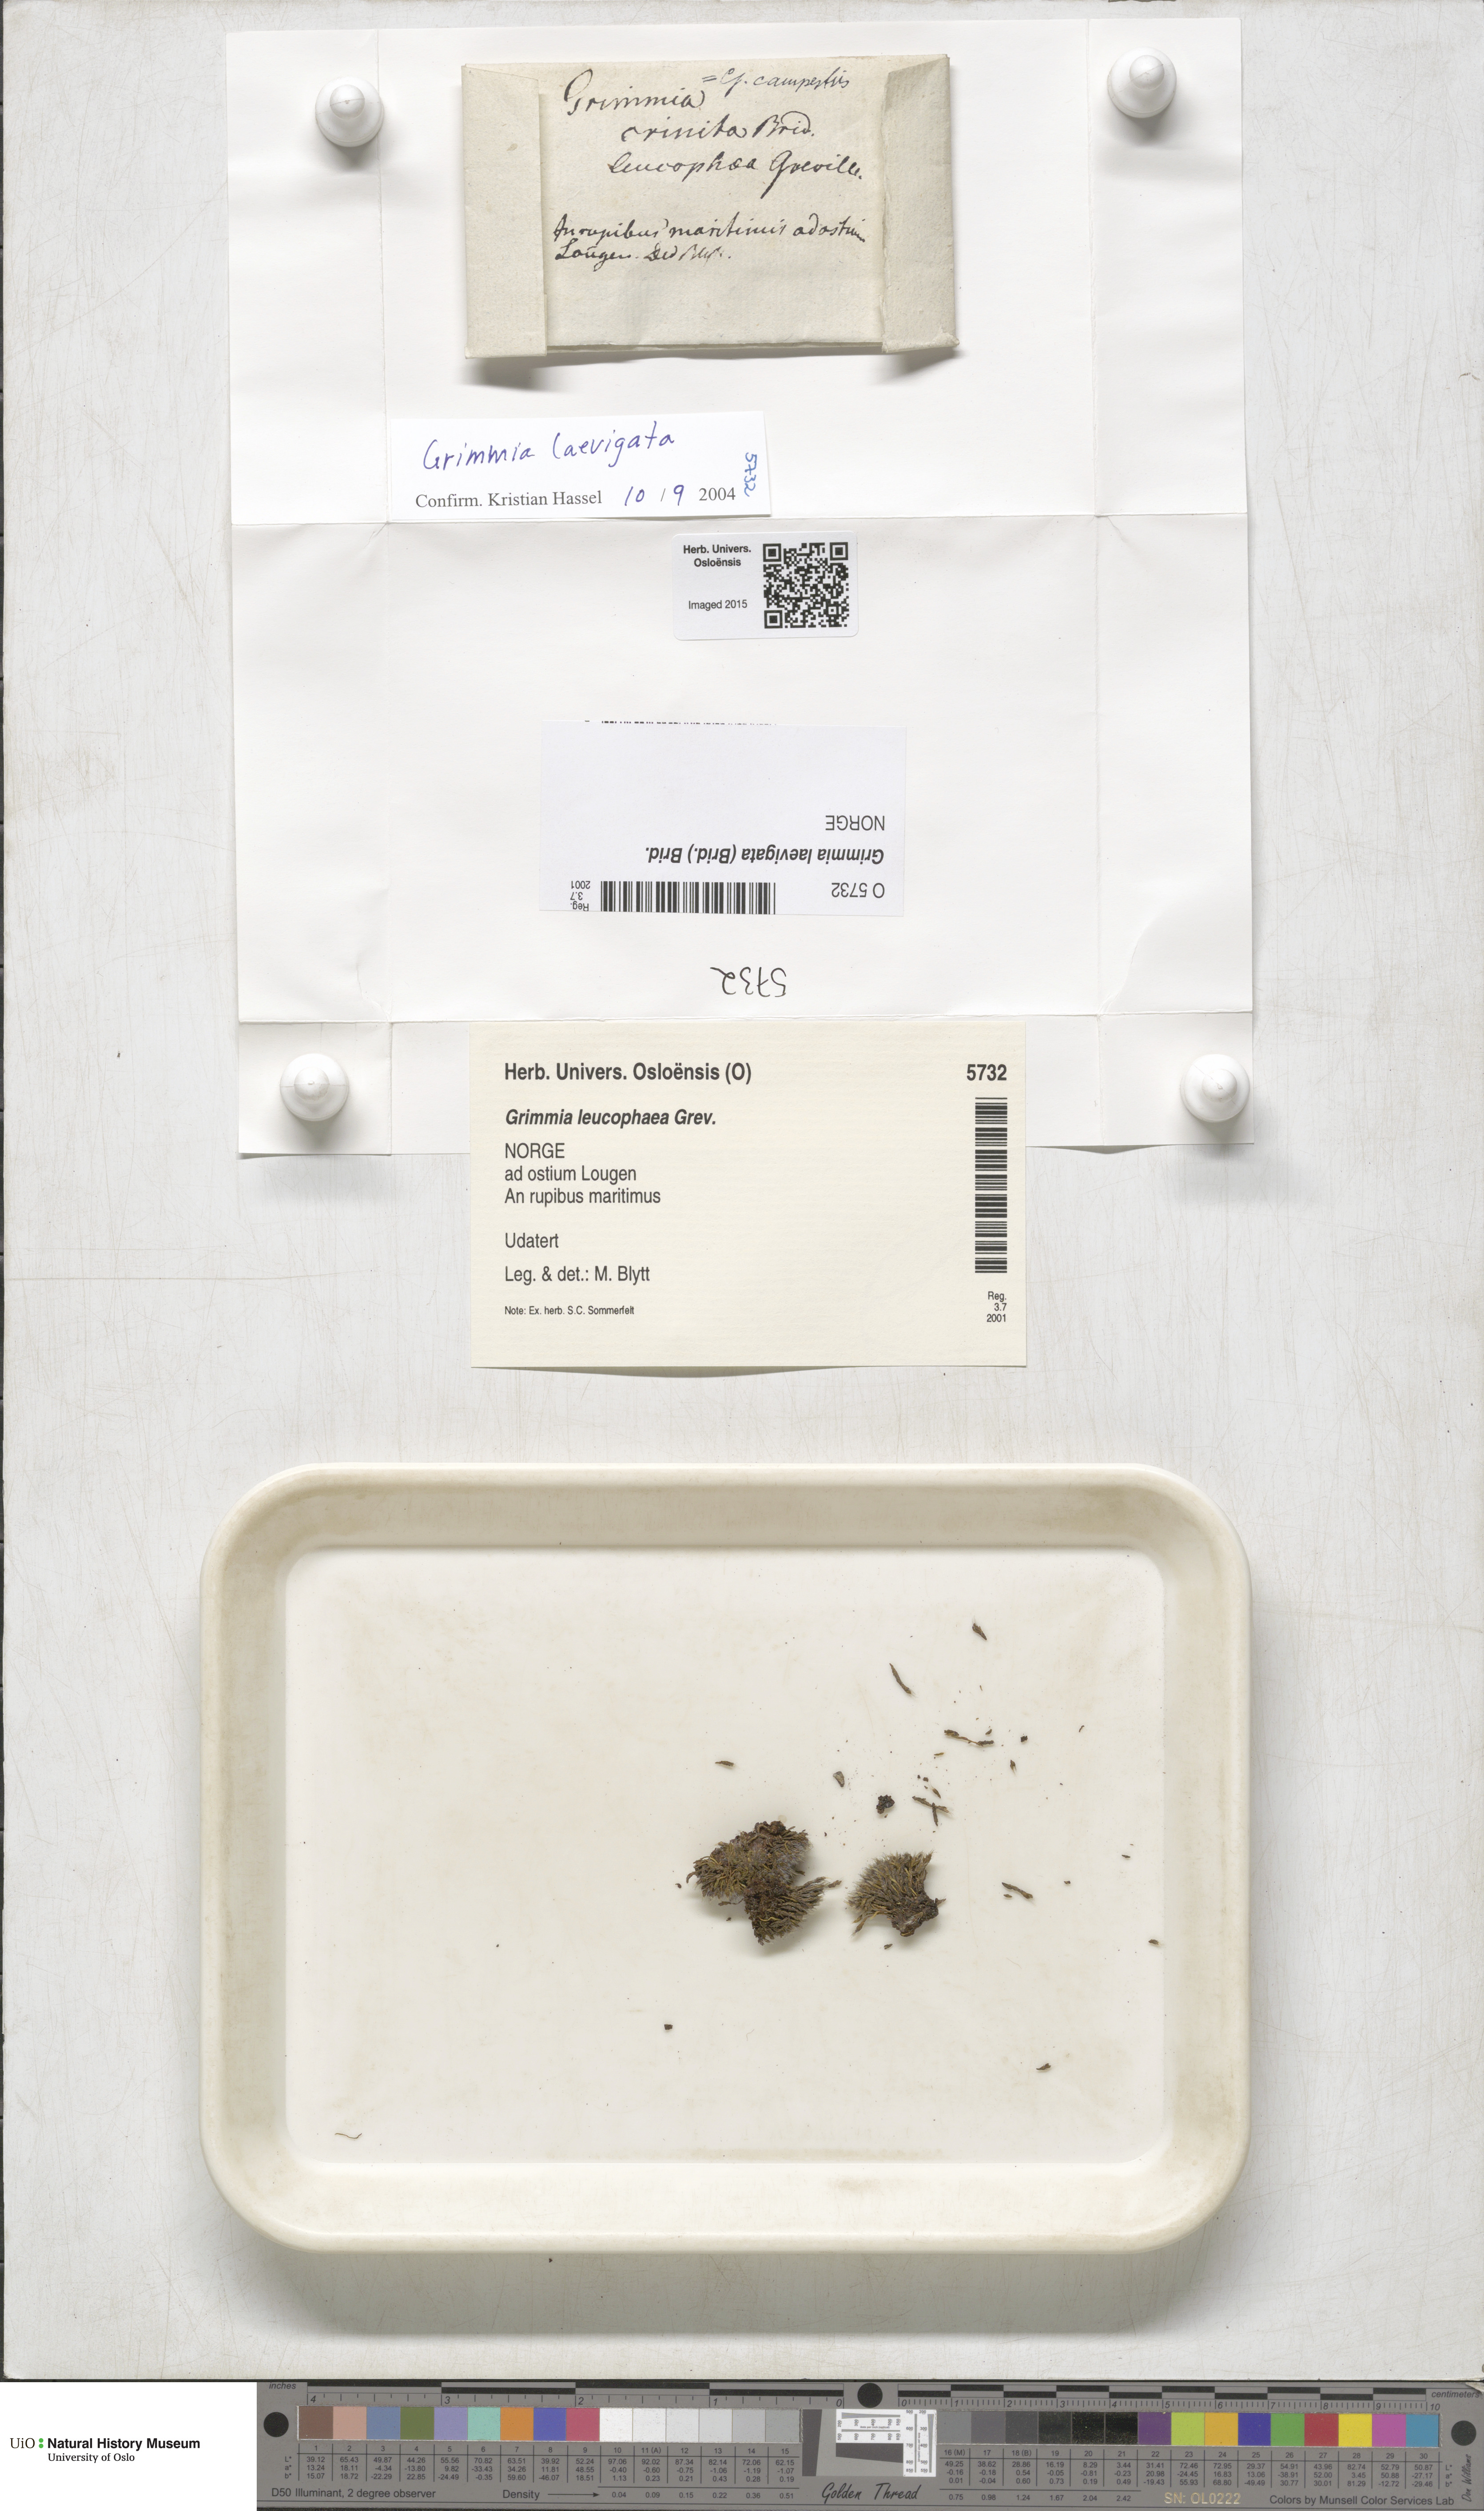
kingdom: Plantae
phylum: Bryophyta
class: Bryopsida
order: Grimmiales
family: Grimmiaceae
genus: Grimmia
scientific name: Grimmia laevigata
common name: Hoary grimmia
